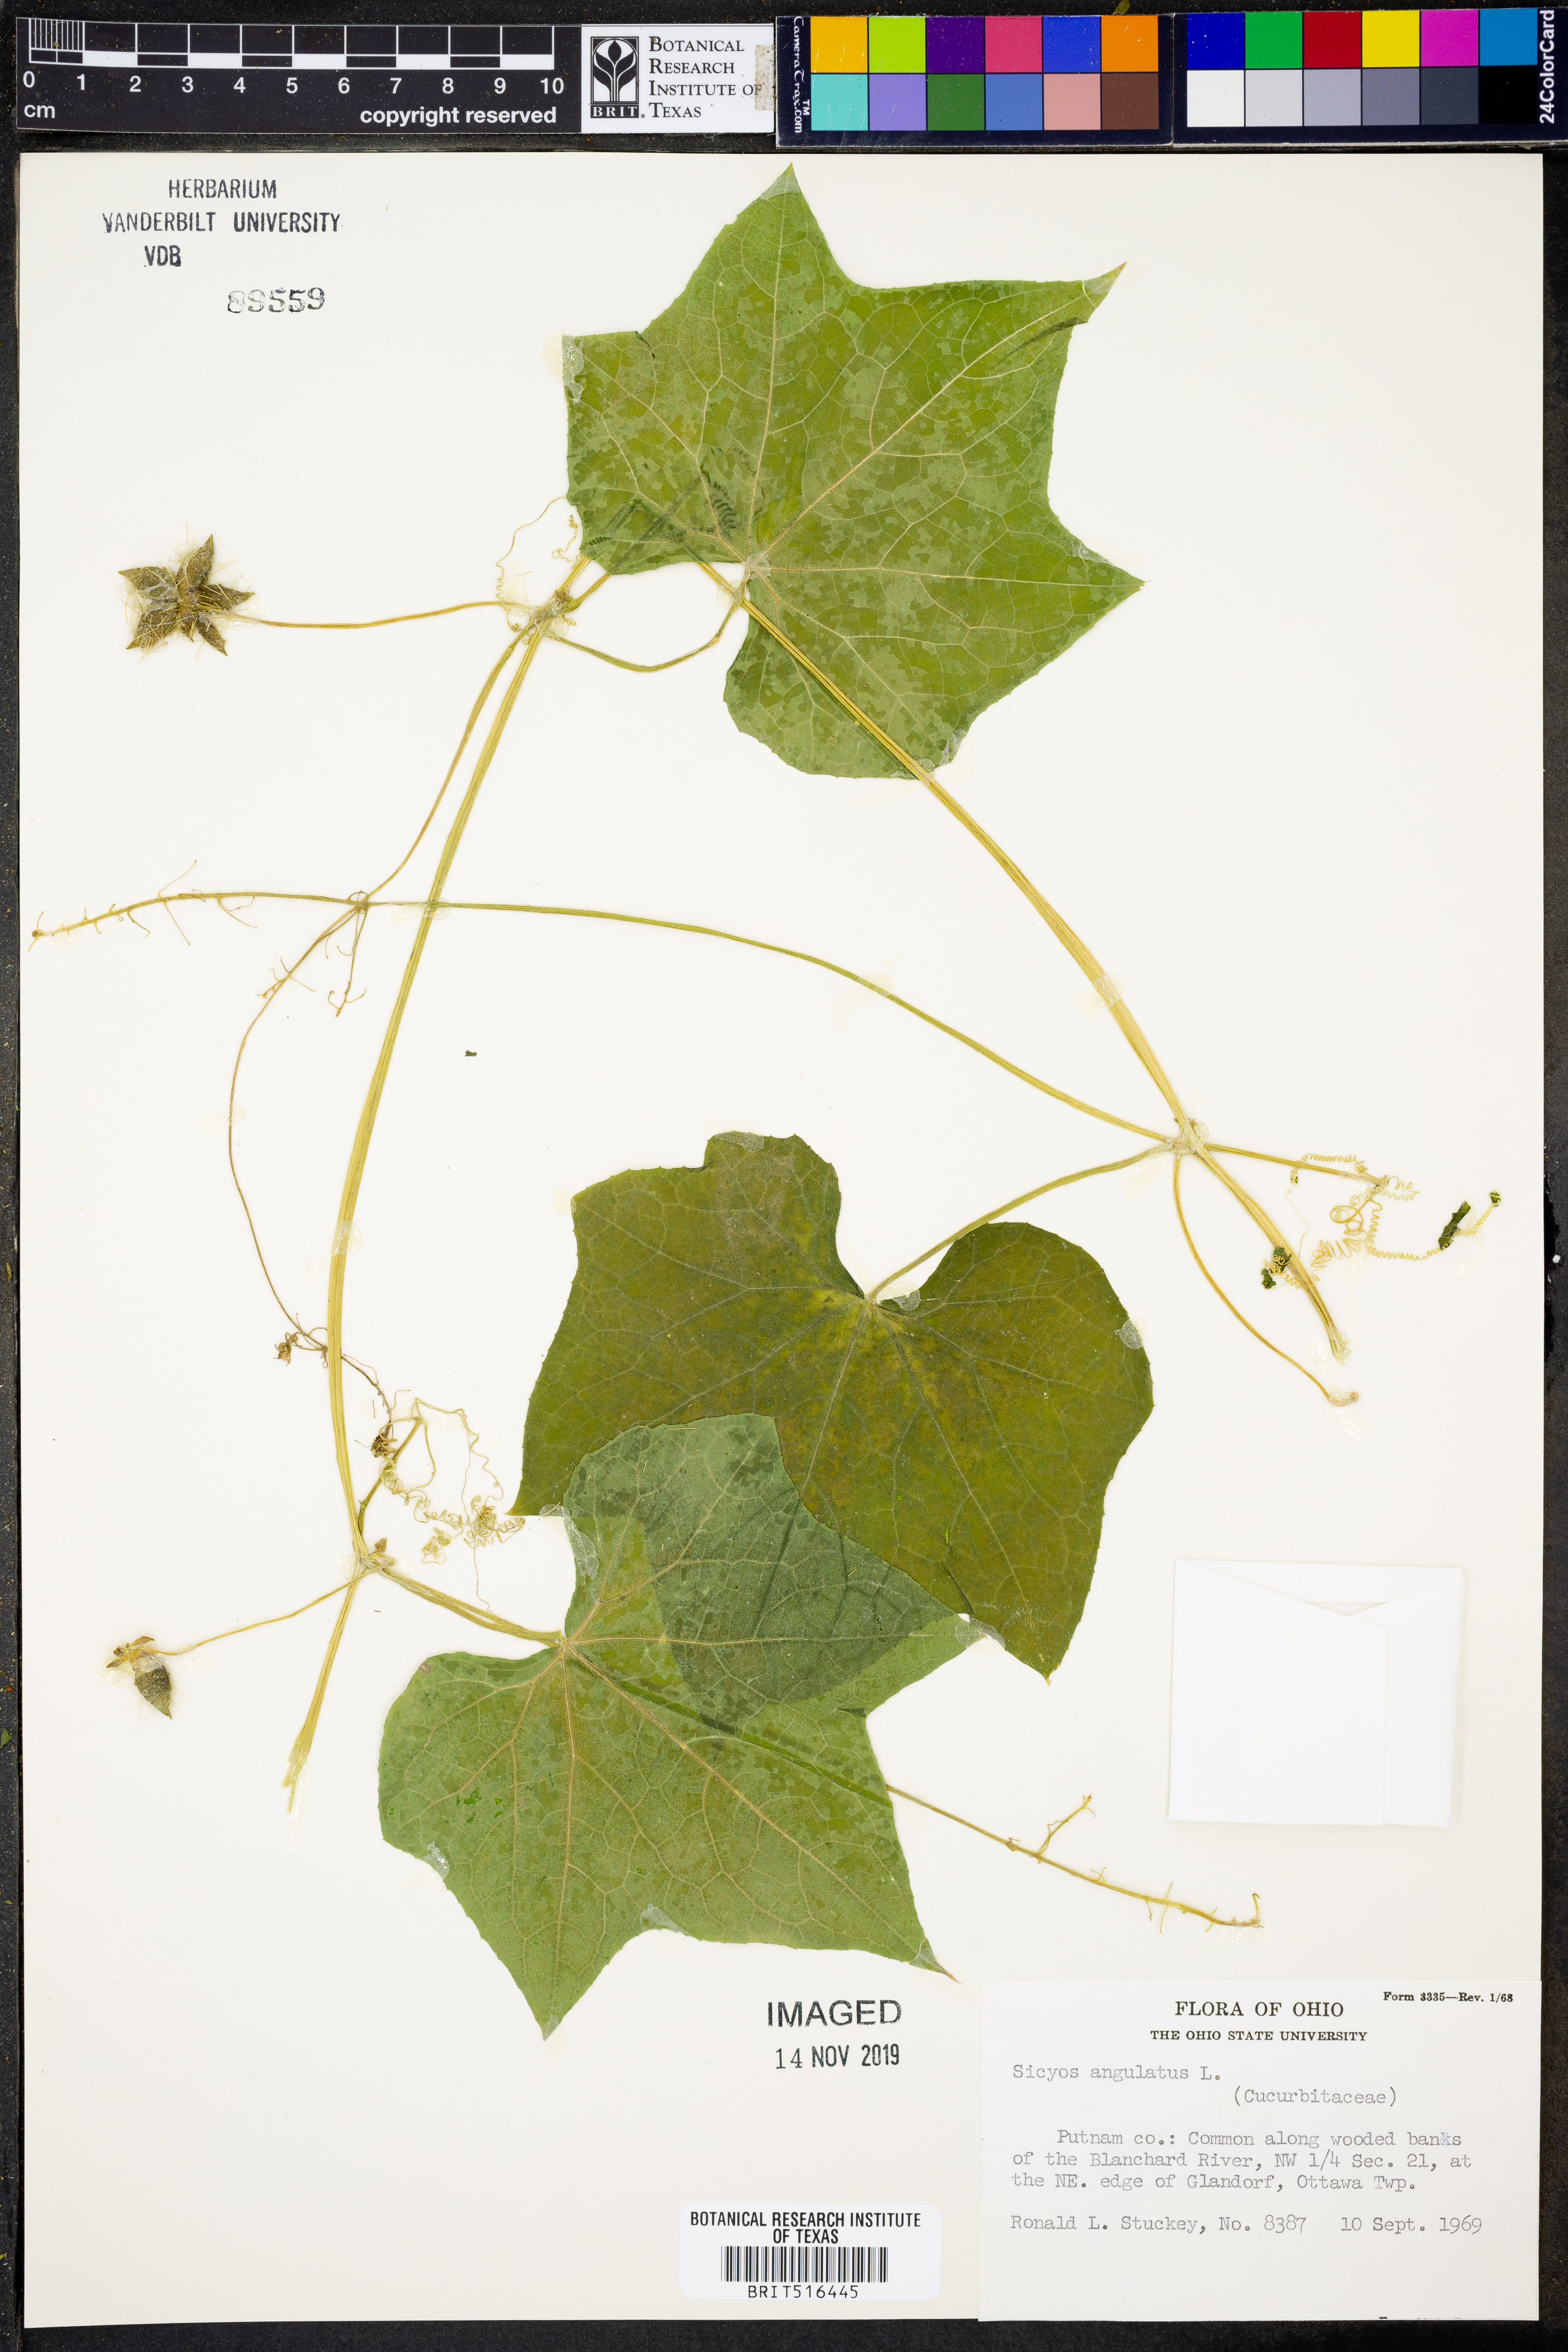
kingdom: Plantae
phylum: Tracheophyta
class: Magnoliopsida
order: Cucurbitales
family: Cucurbitaceae
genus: Sicyos
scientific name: Sicyos angulatus
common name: Angled burr cucumber
